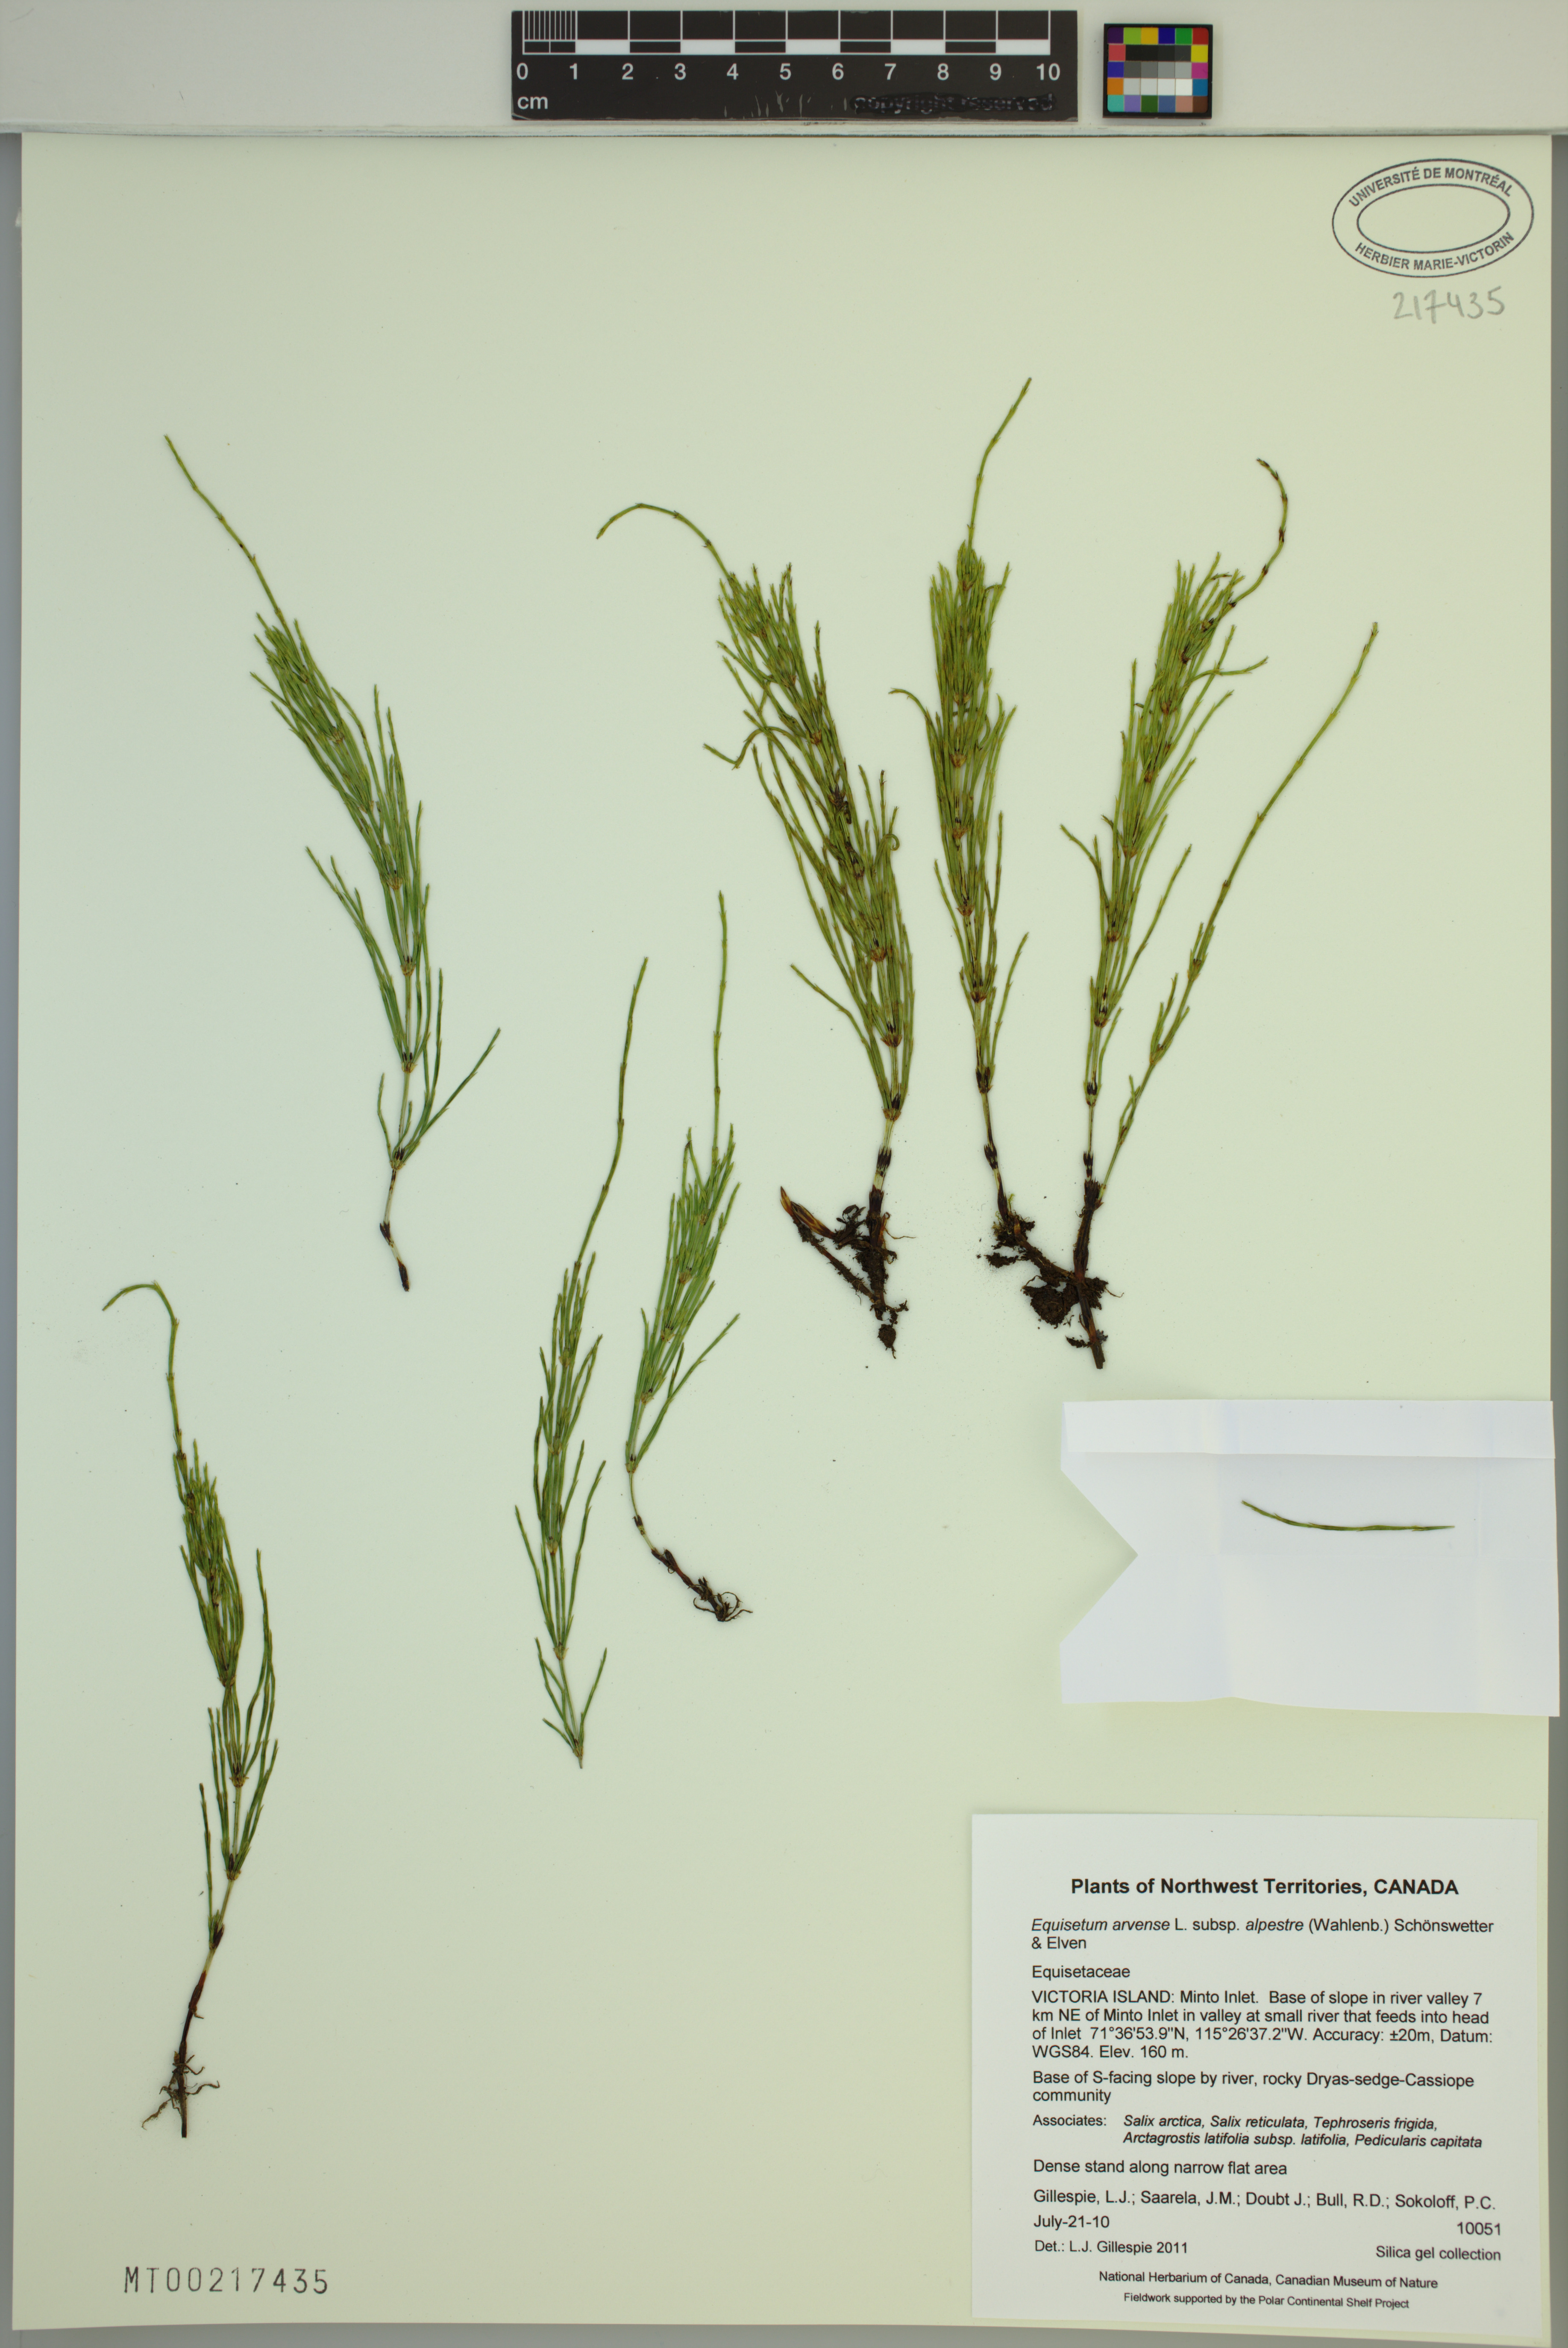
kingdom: Plantae
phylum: Tracheophyta
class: Polypodiopsida
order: Equisetales
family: Equisetaceae
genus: Equisetum
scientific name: Equisetum arvense
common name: Field horsetail
